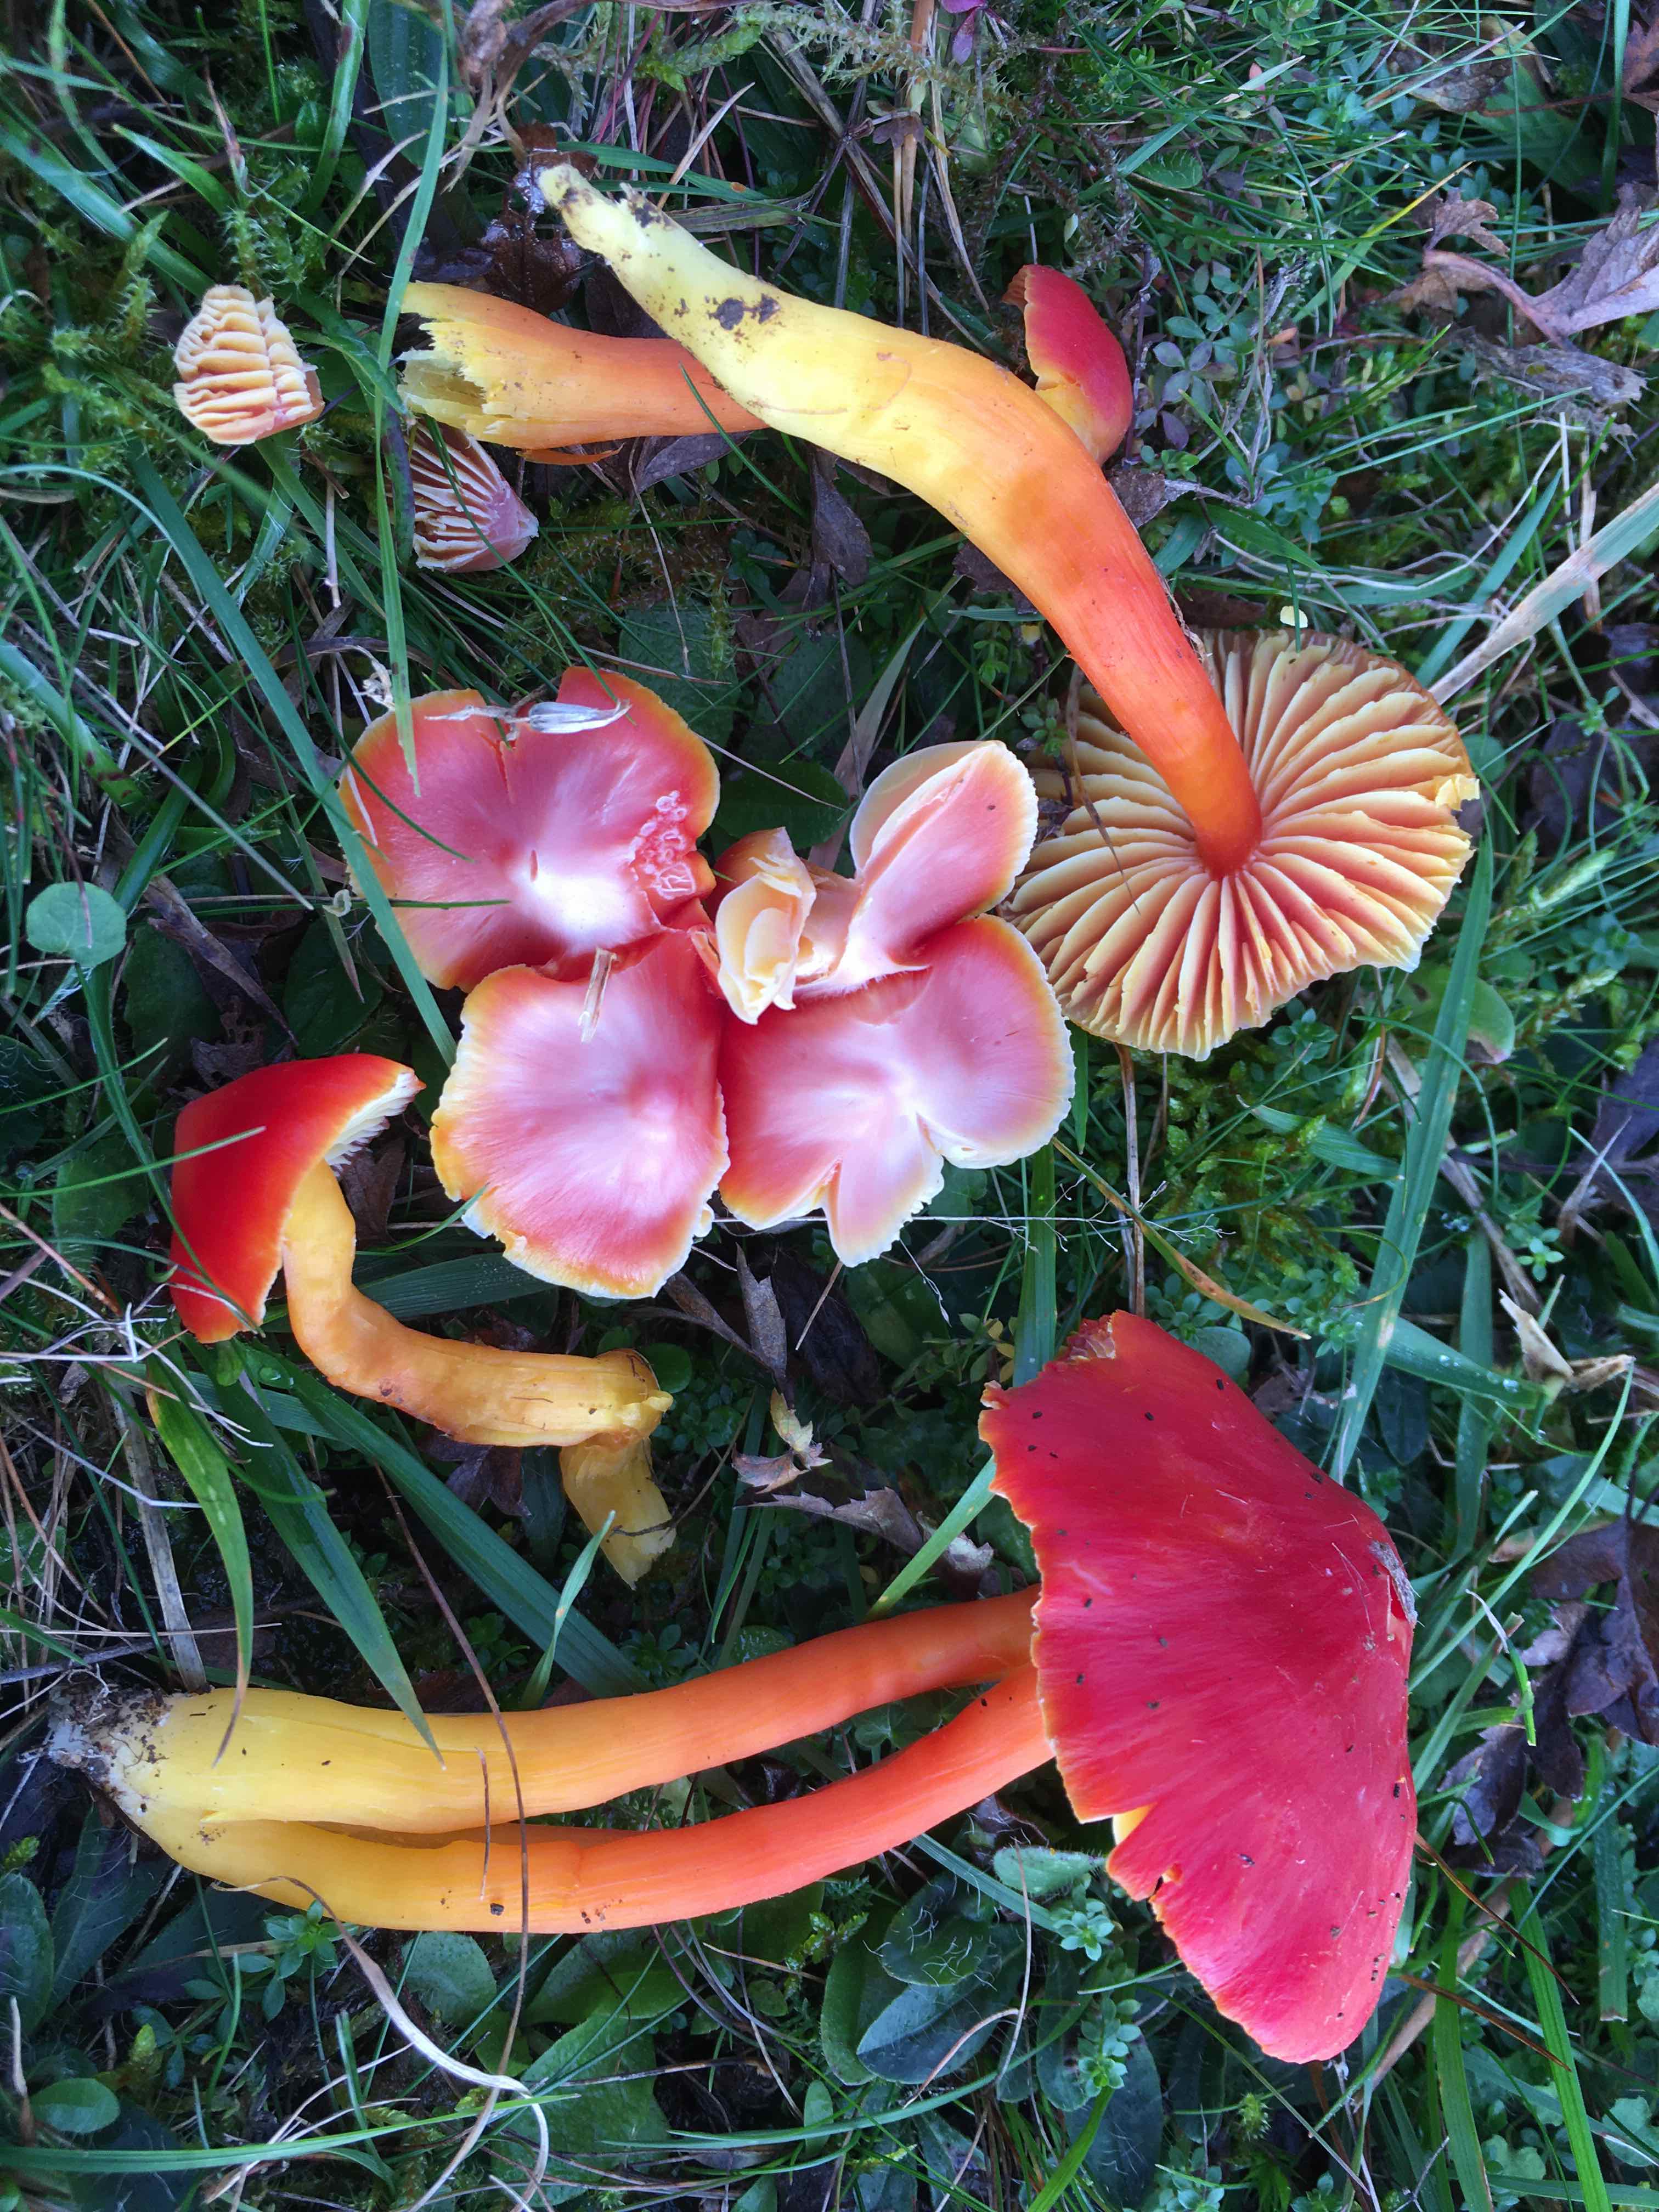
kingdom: Fungi
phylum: Basidiomycota
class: Agaricomycetes
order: Agaricales
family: Hygrophoraceae
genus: Hygrocybe
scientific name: Hygrocybe splendidissima
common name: knaldrød vokshat
